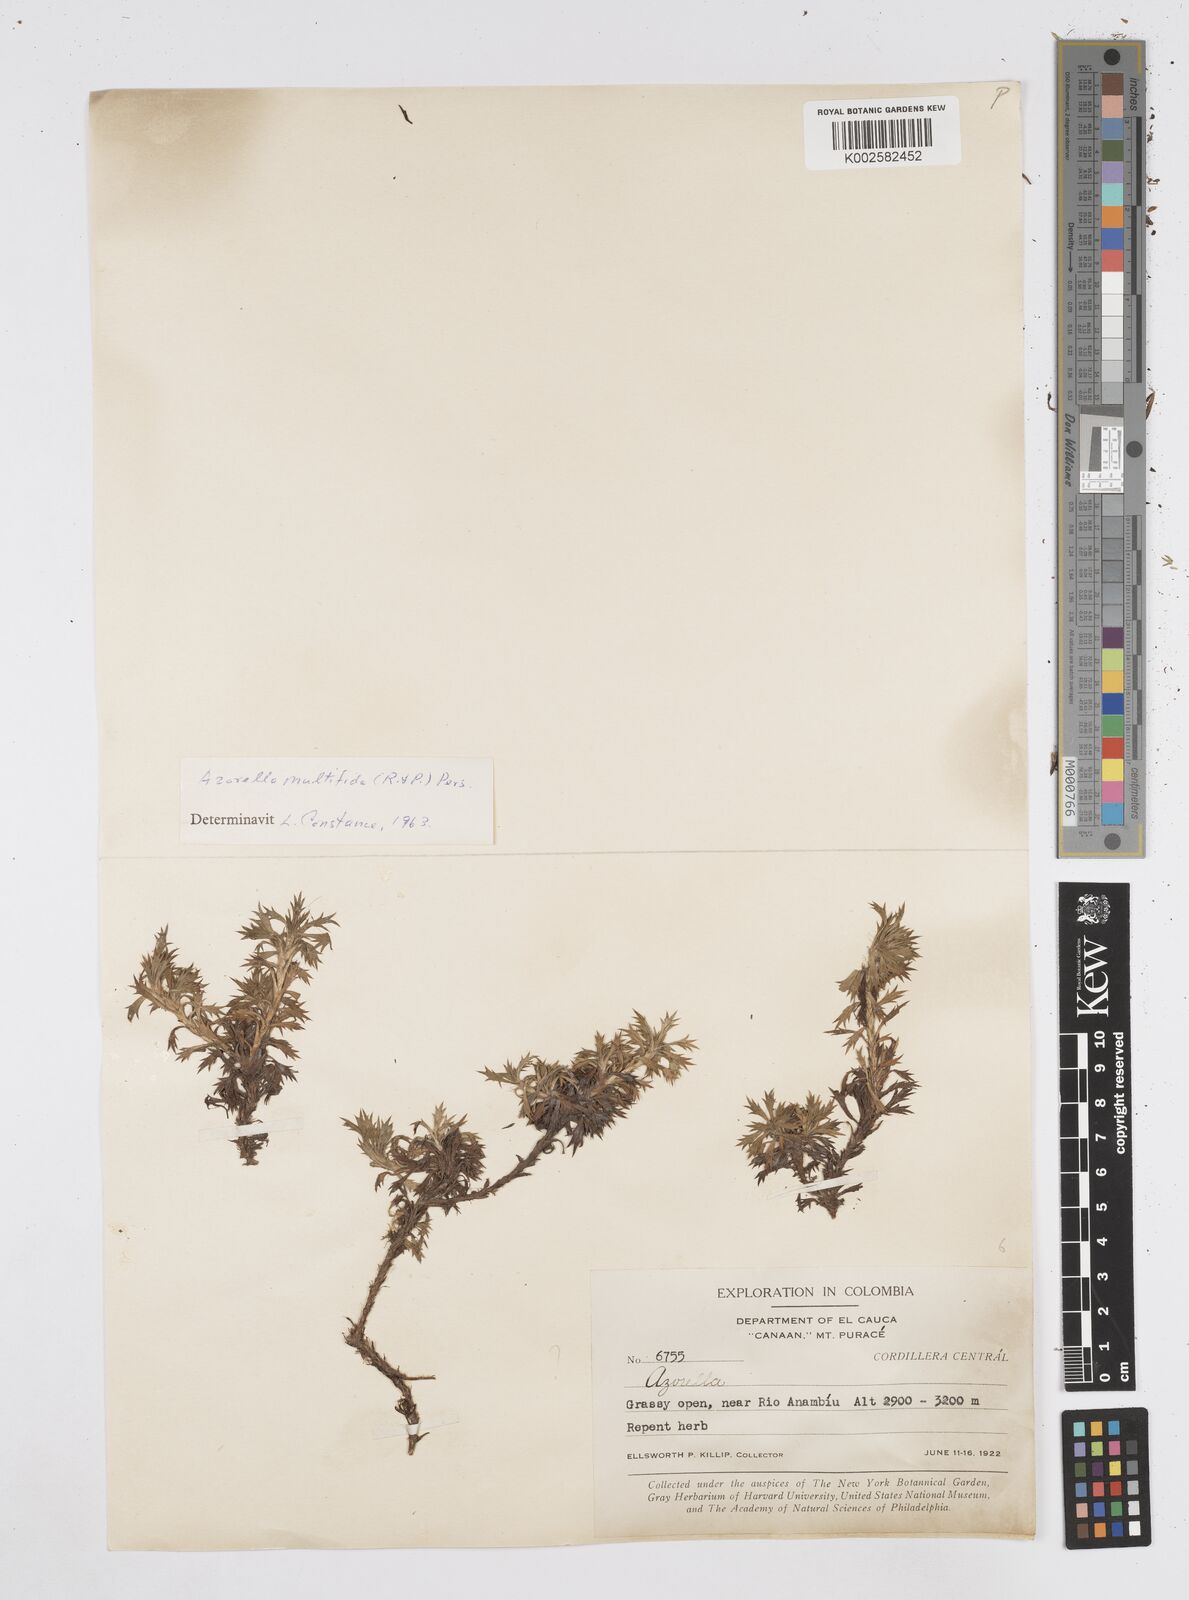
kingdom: Plantae
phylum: Tracheophyta
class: Magnoliopsida
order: Apiales
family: Apiaceae
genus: Azorella
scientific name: Azorella
